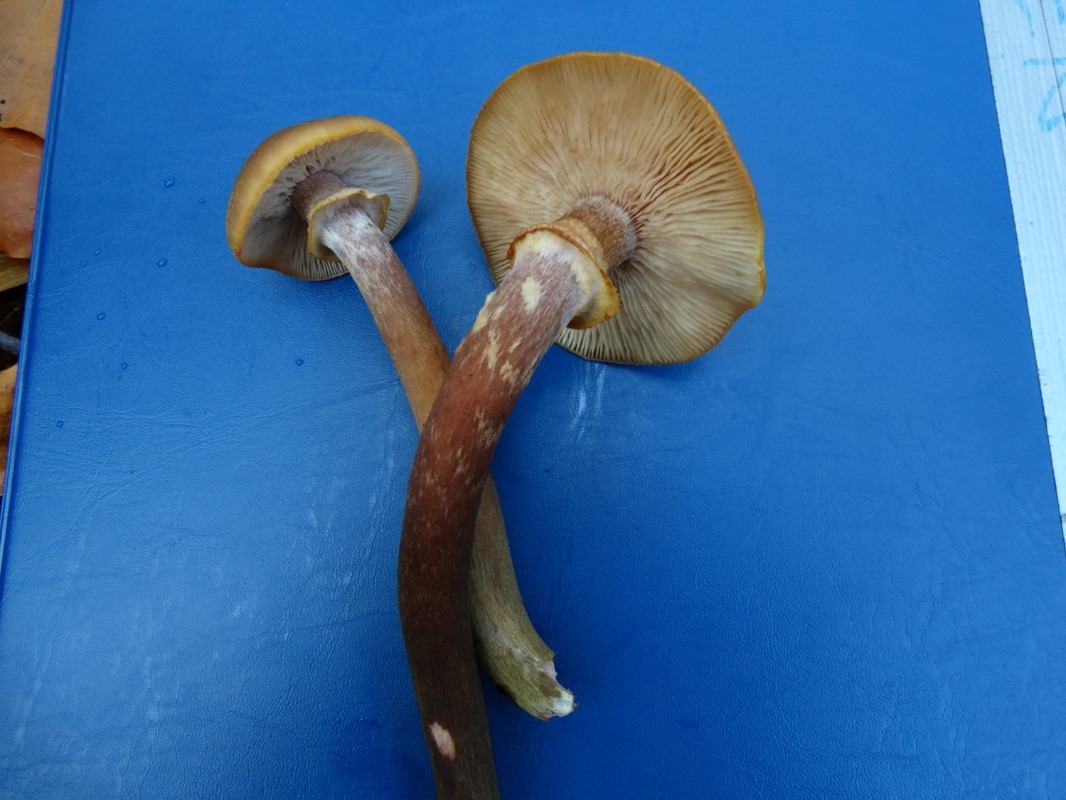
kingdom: Fungi
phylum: Basidiomycota
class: Agaricomycetes
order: Agaricales
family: Physalacriaceae
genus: Armillaria
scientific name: Armillaria mellea
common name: ægte honningsvamp
